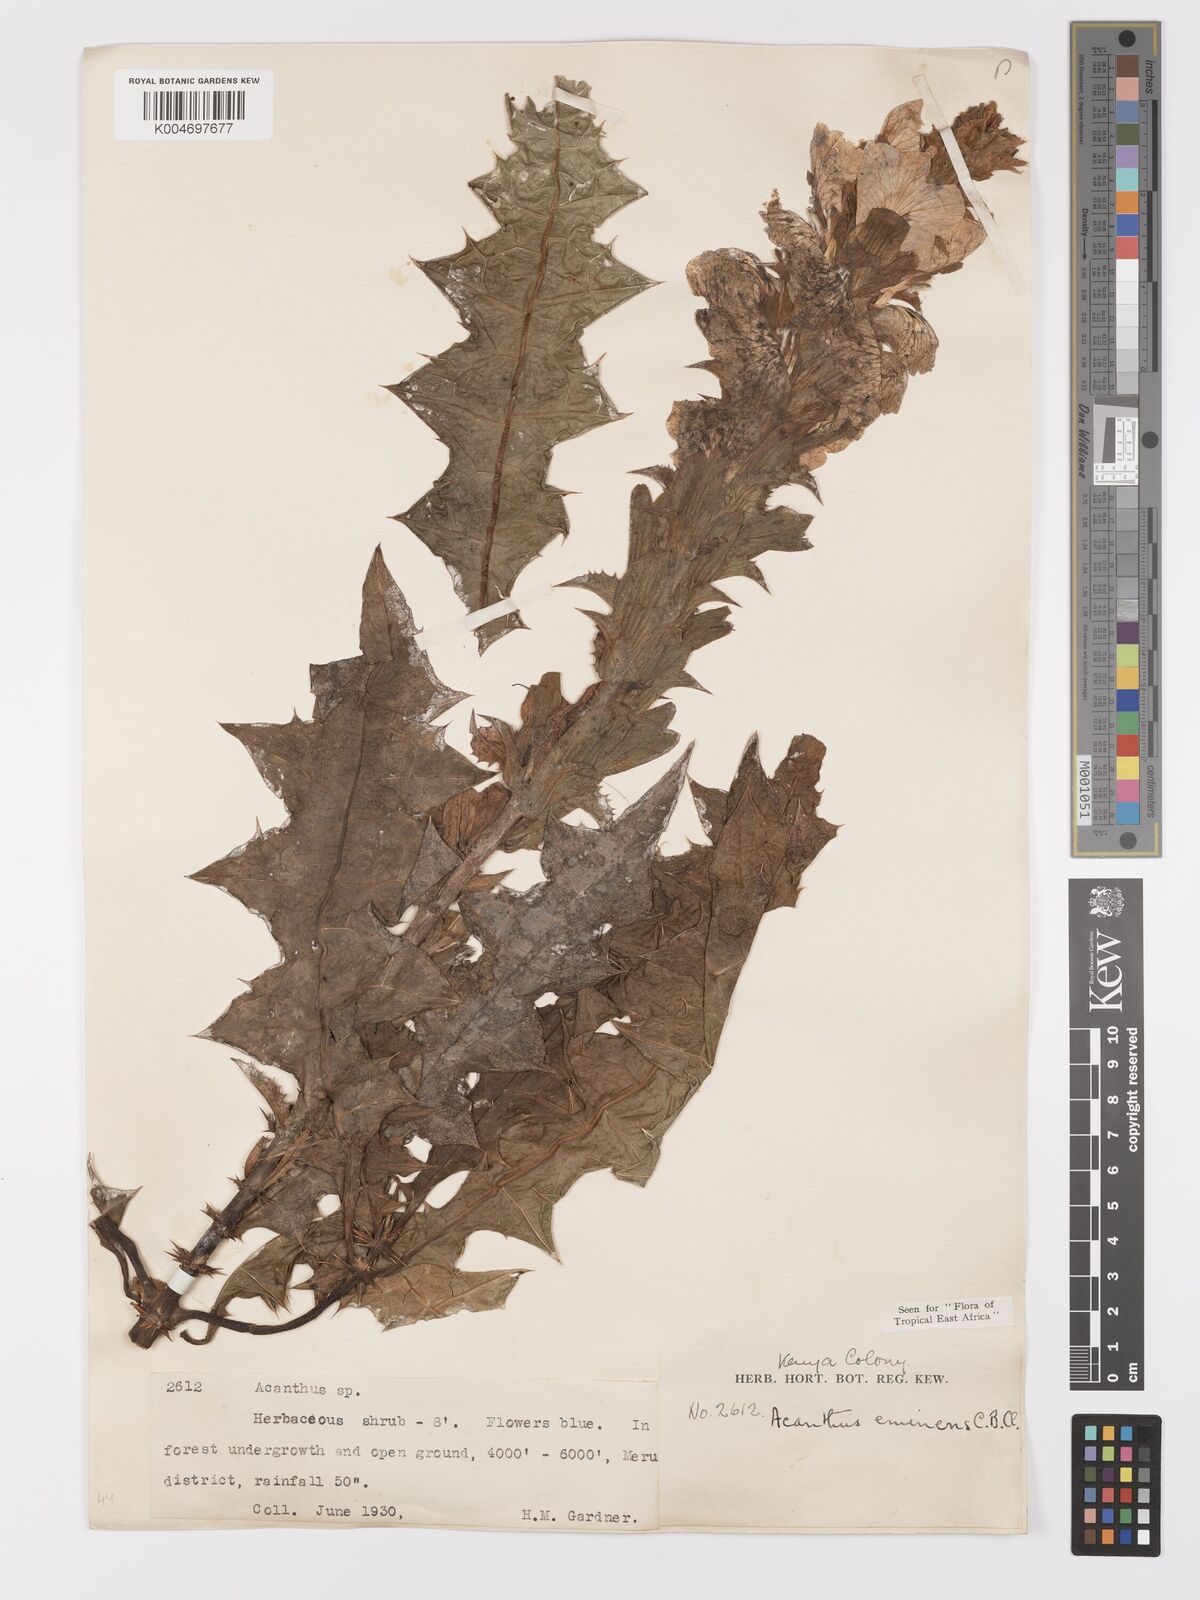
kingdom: Plantae
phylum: Tracheophyta
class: Magnoliopsida
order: Lamiales
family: Acanthaceae
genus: Acanthus
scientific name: Acanthus eminens
